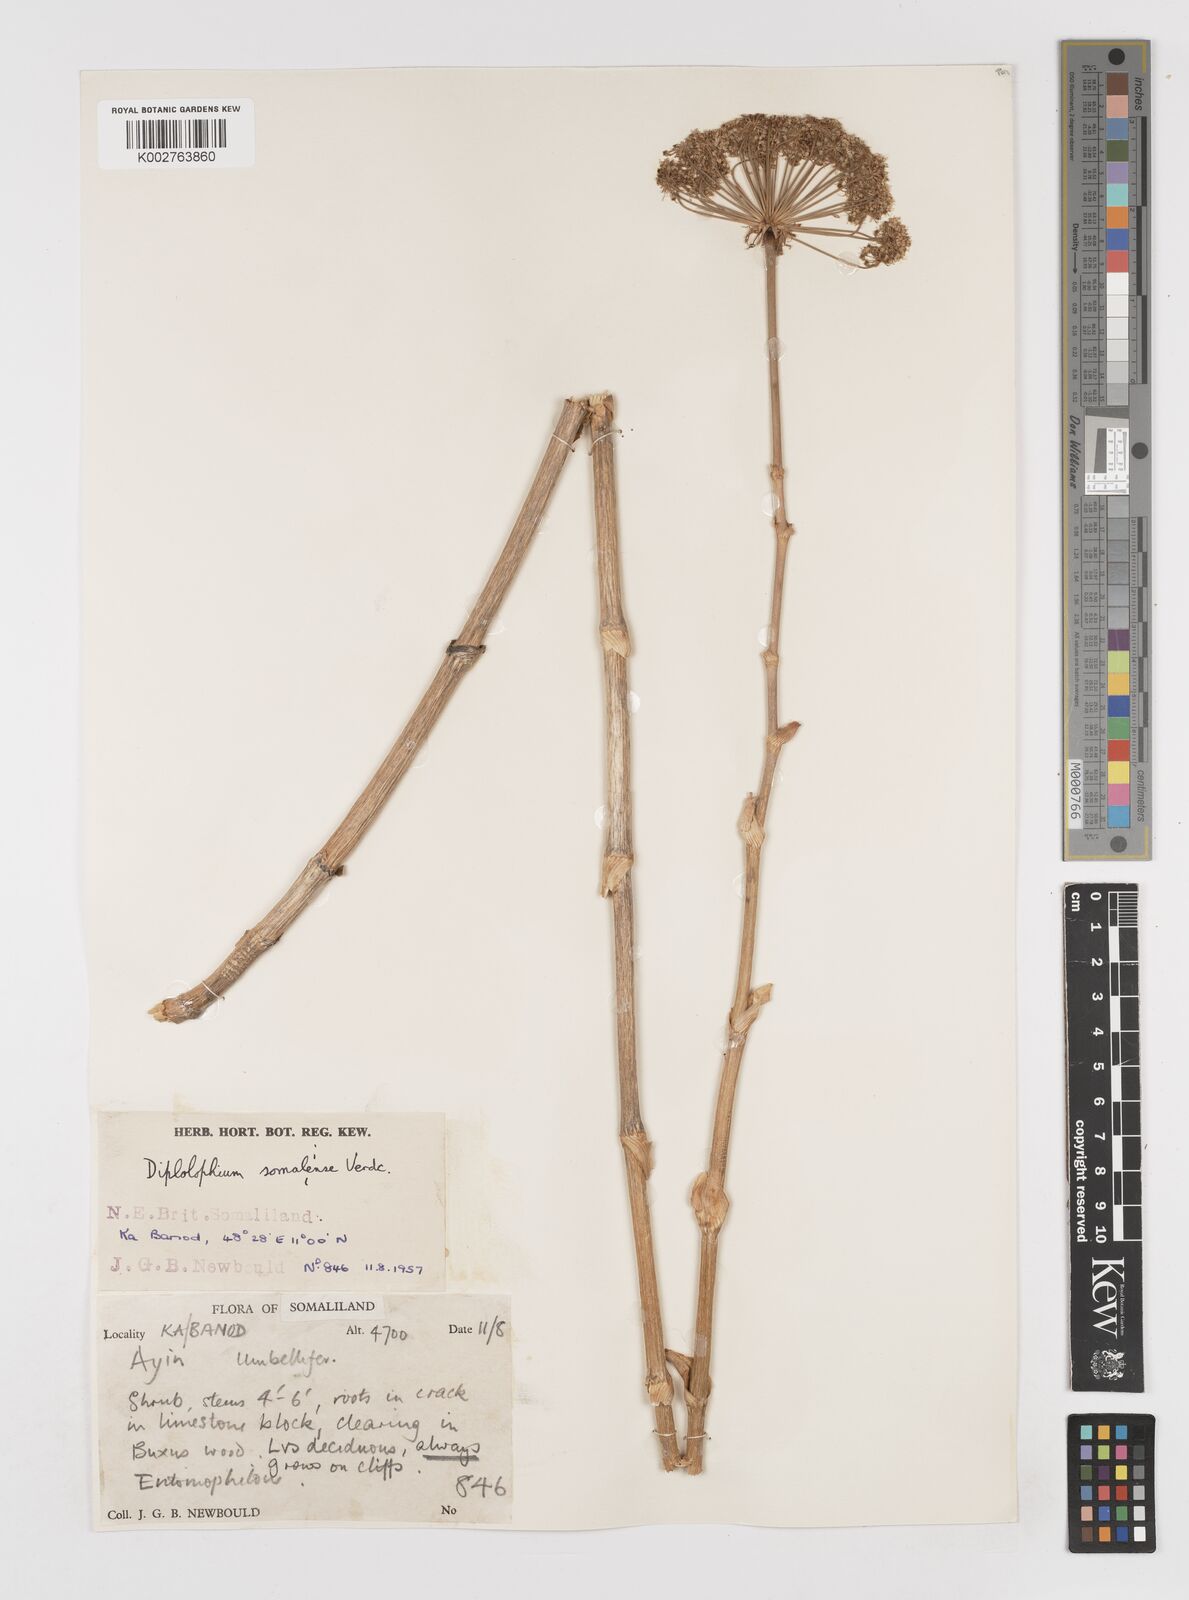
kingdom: Plantae
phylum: Tracheophyta
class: Magnoliopsida
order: Apiales
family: Apiaceae
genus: Diplolophium
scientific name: Diplolophium somaliense
